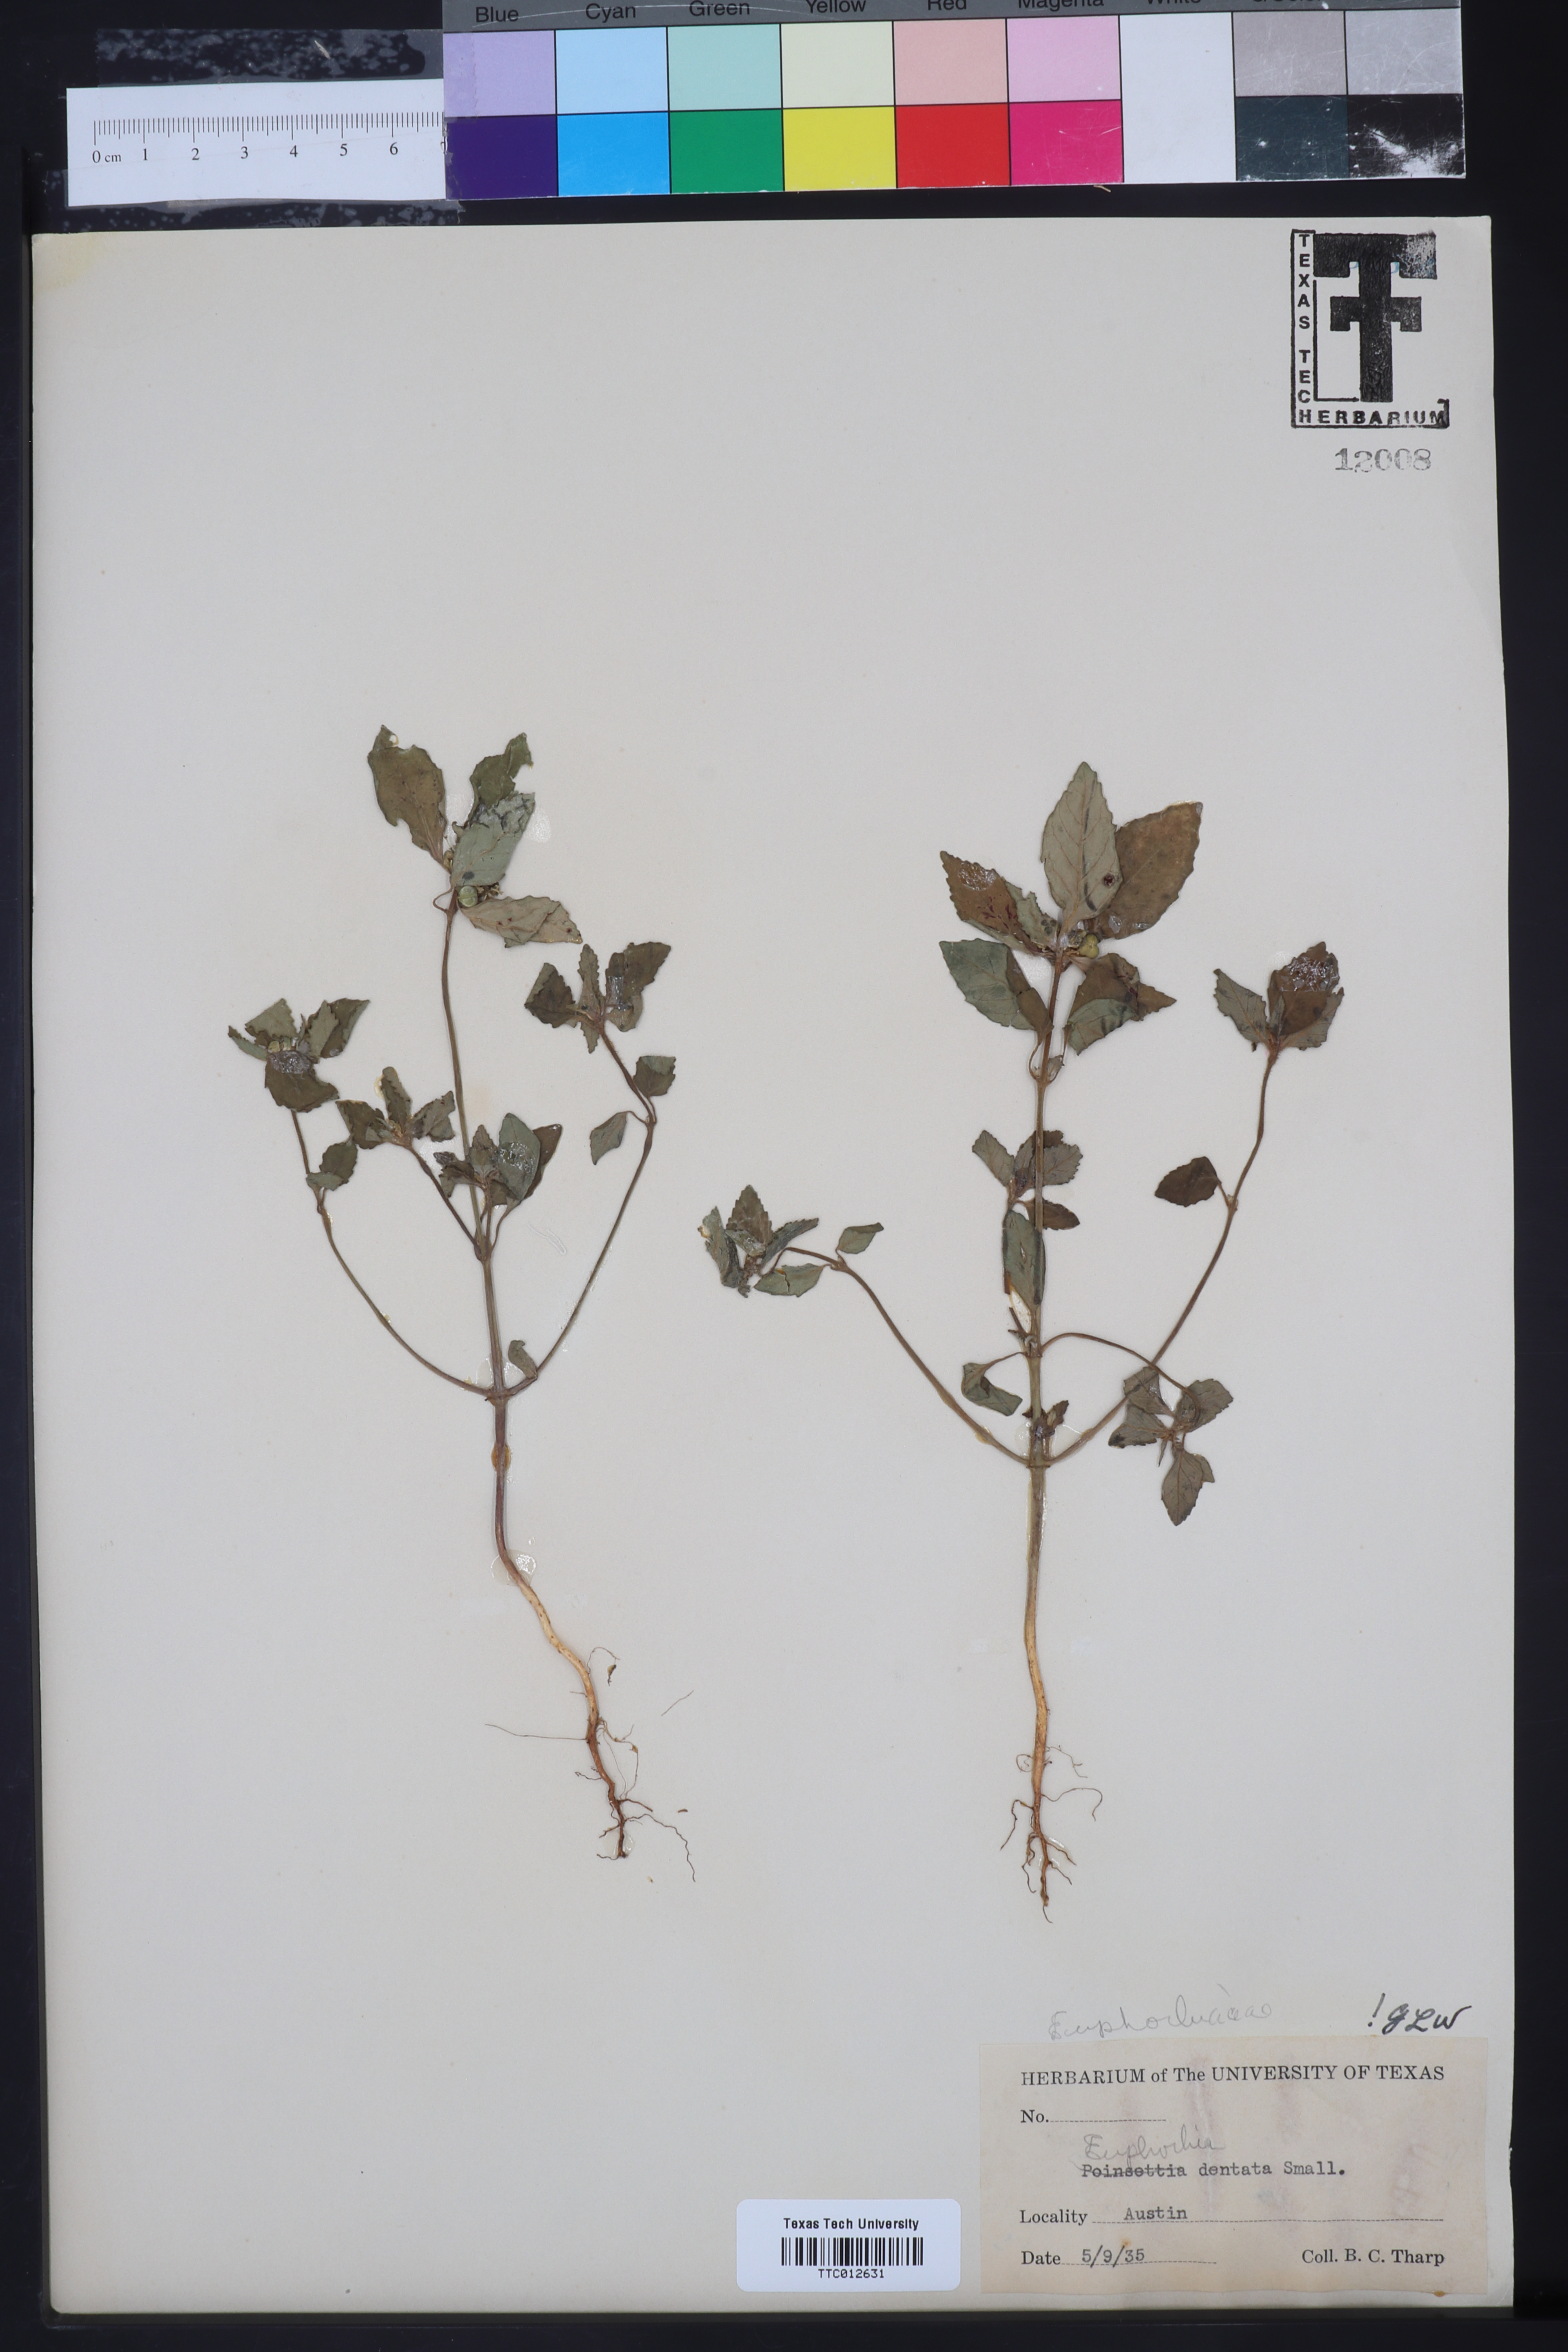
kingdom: Plantae
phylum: Tracheophyta
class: Magnoliopsida
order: Malpighiales
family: Euphorbiaceae
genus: Euphorbia
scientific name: Euphorbia dentata
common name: Dentate spurge
